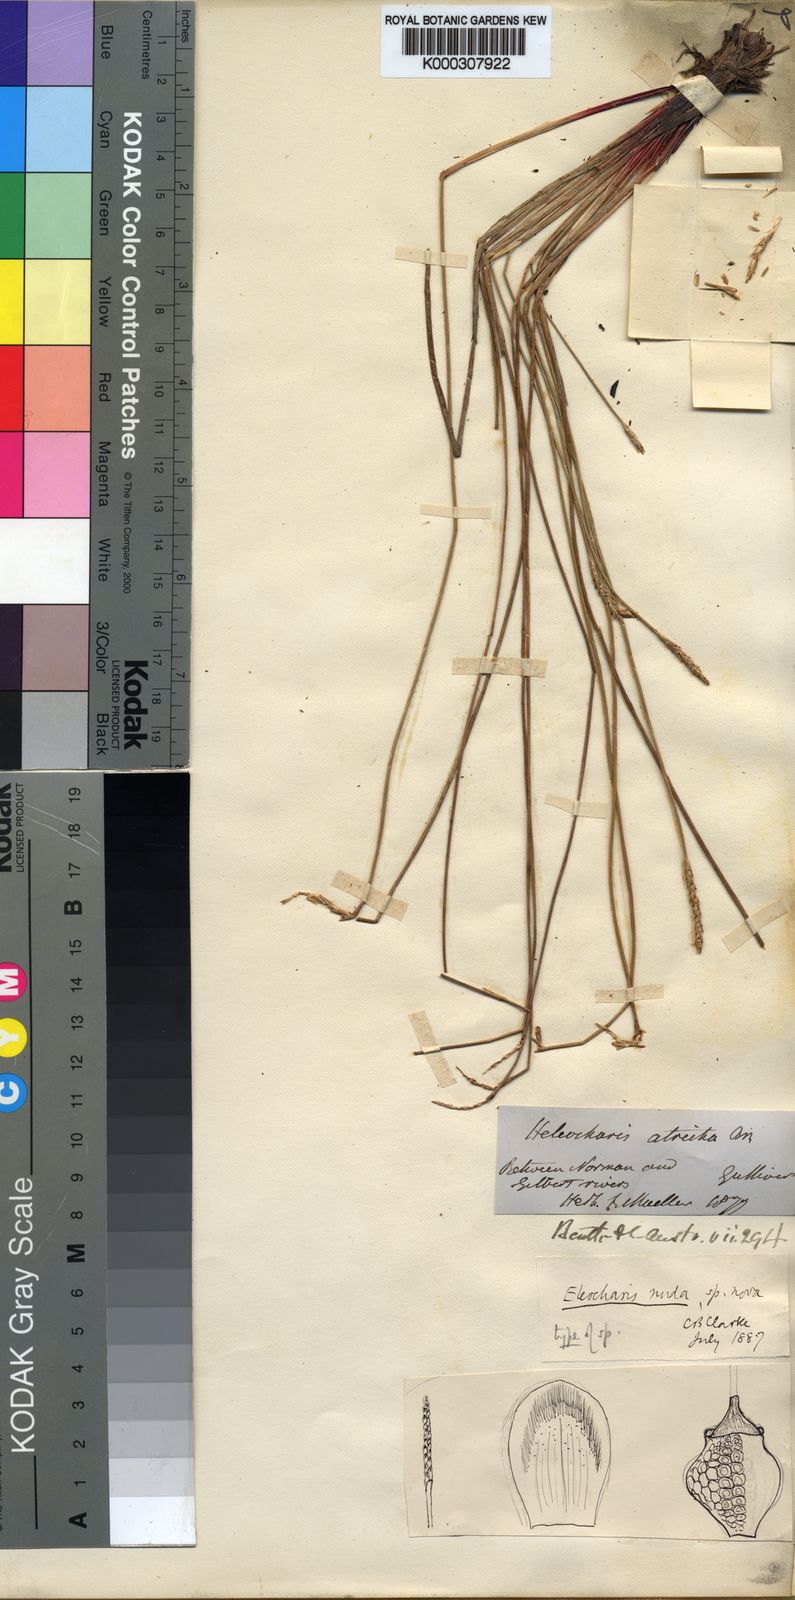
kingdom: Plantae
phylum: Tracheophyta
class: Liliopsida
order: Poales
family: Cyperaceae
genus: Eleocharis
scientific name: Eleocharis nuda
